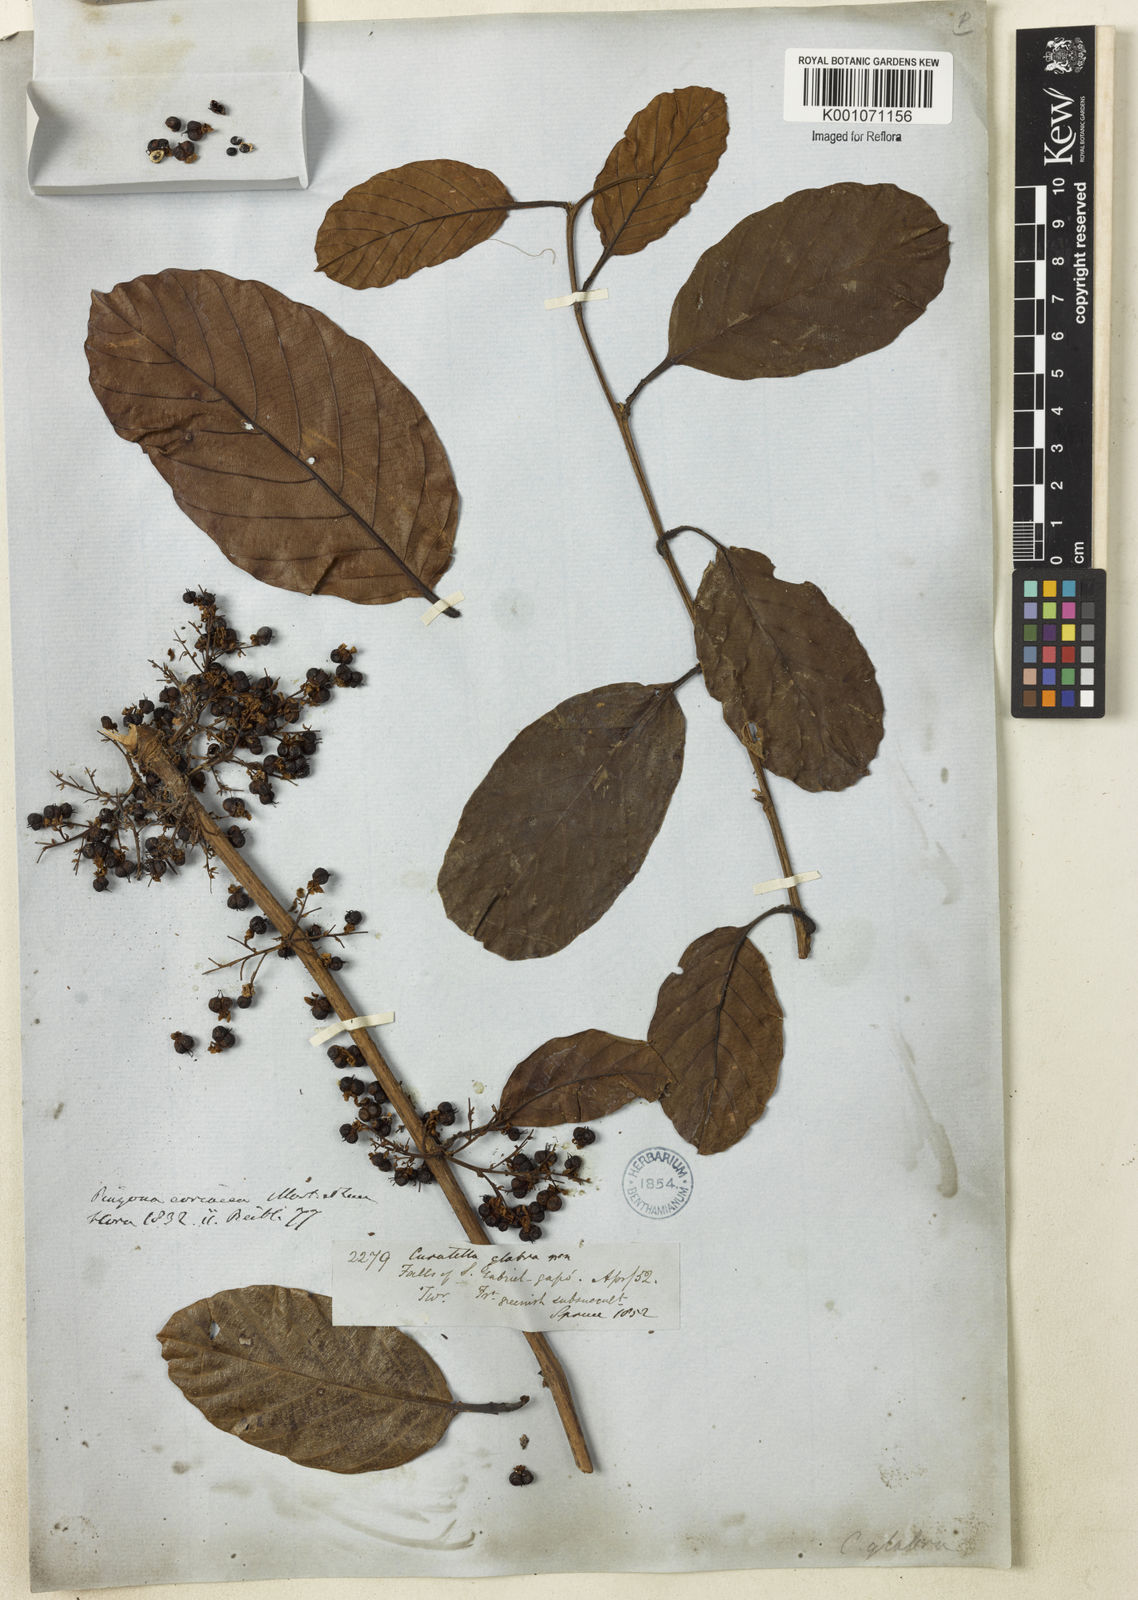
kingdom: Plantae
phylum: Tracheophyta
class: Magnoliopsida
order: Dilleniales
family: Dilleniaceae
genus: Pinzona
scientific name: Pinzona coriacea
